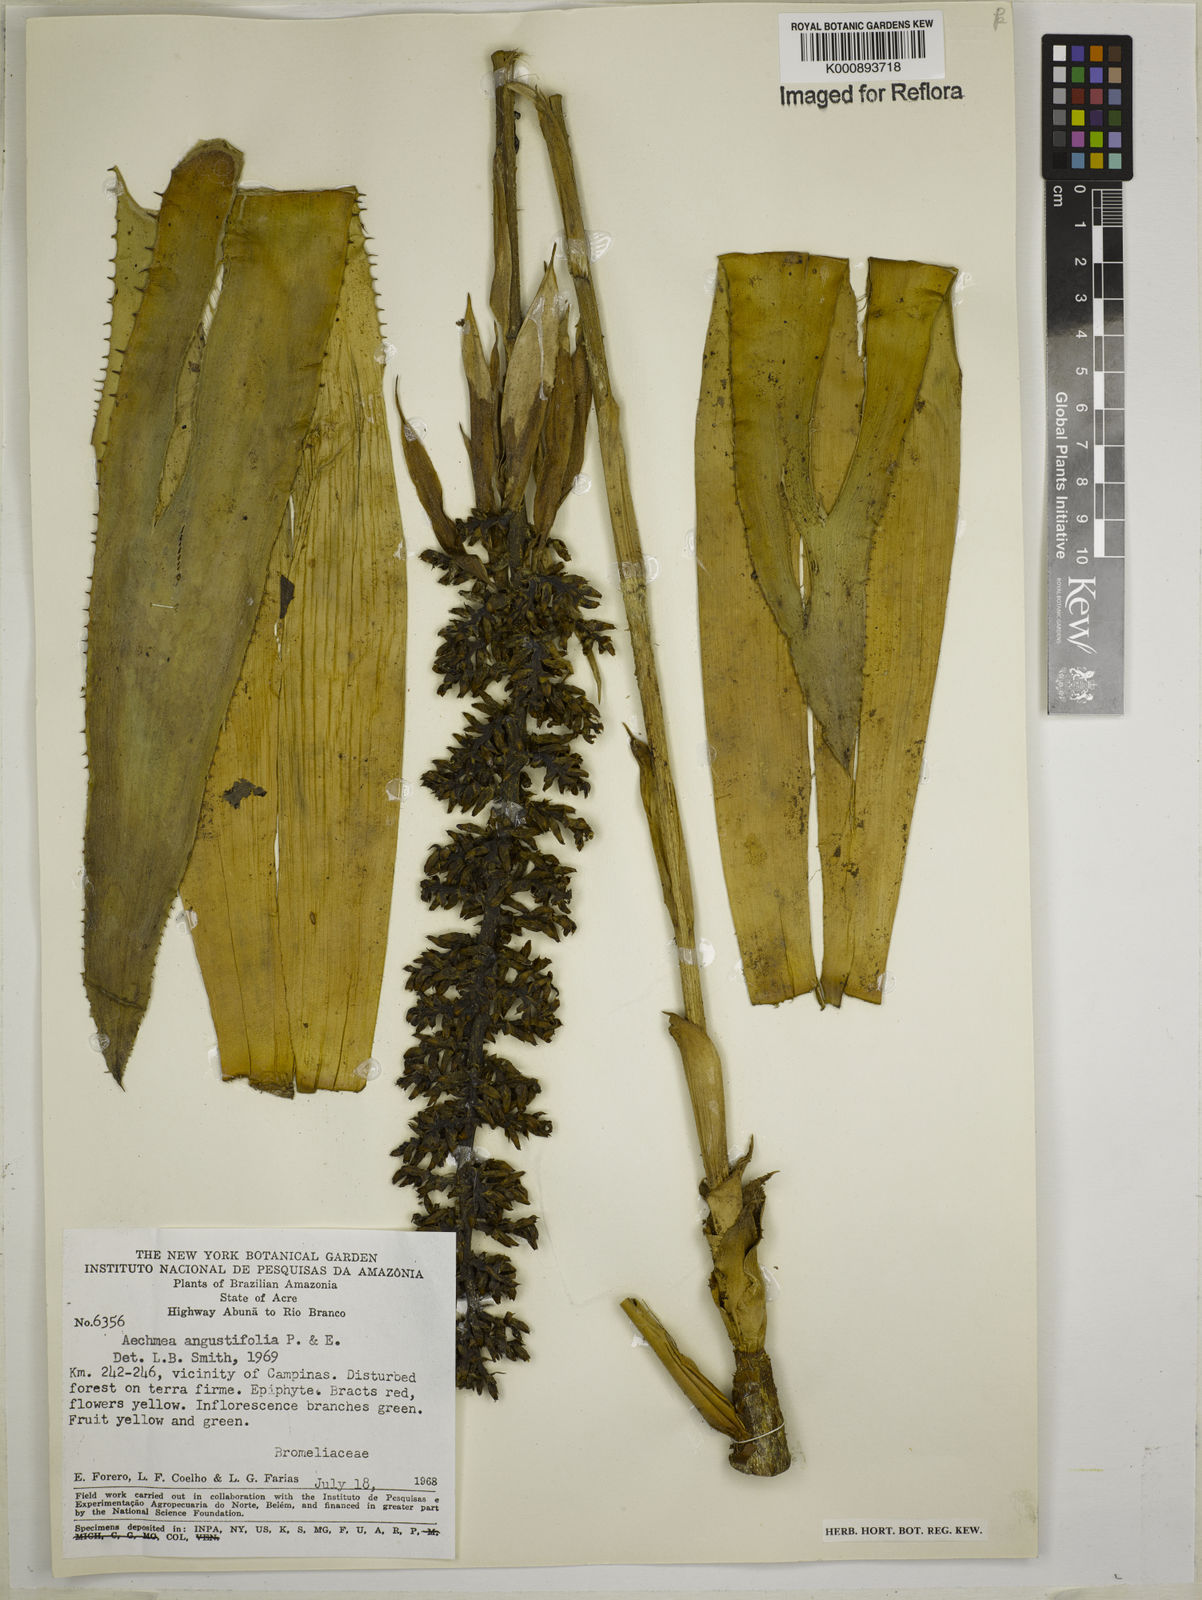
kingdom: Plantae
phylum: Tracheophyta
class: Liliopsida
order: Poales
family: Bromeliaceae
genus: Aechmea
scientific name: Aechmea angustifolia
